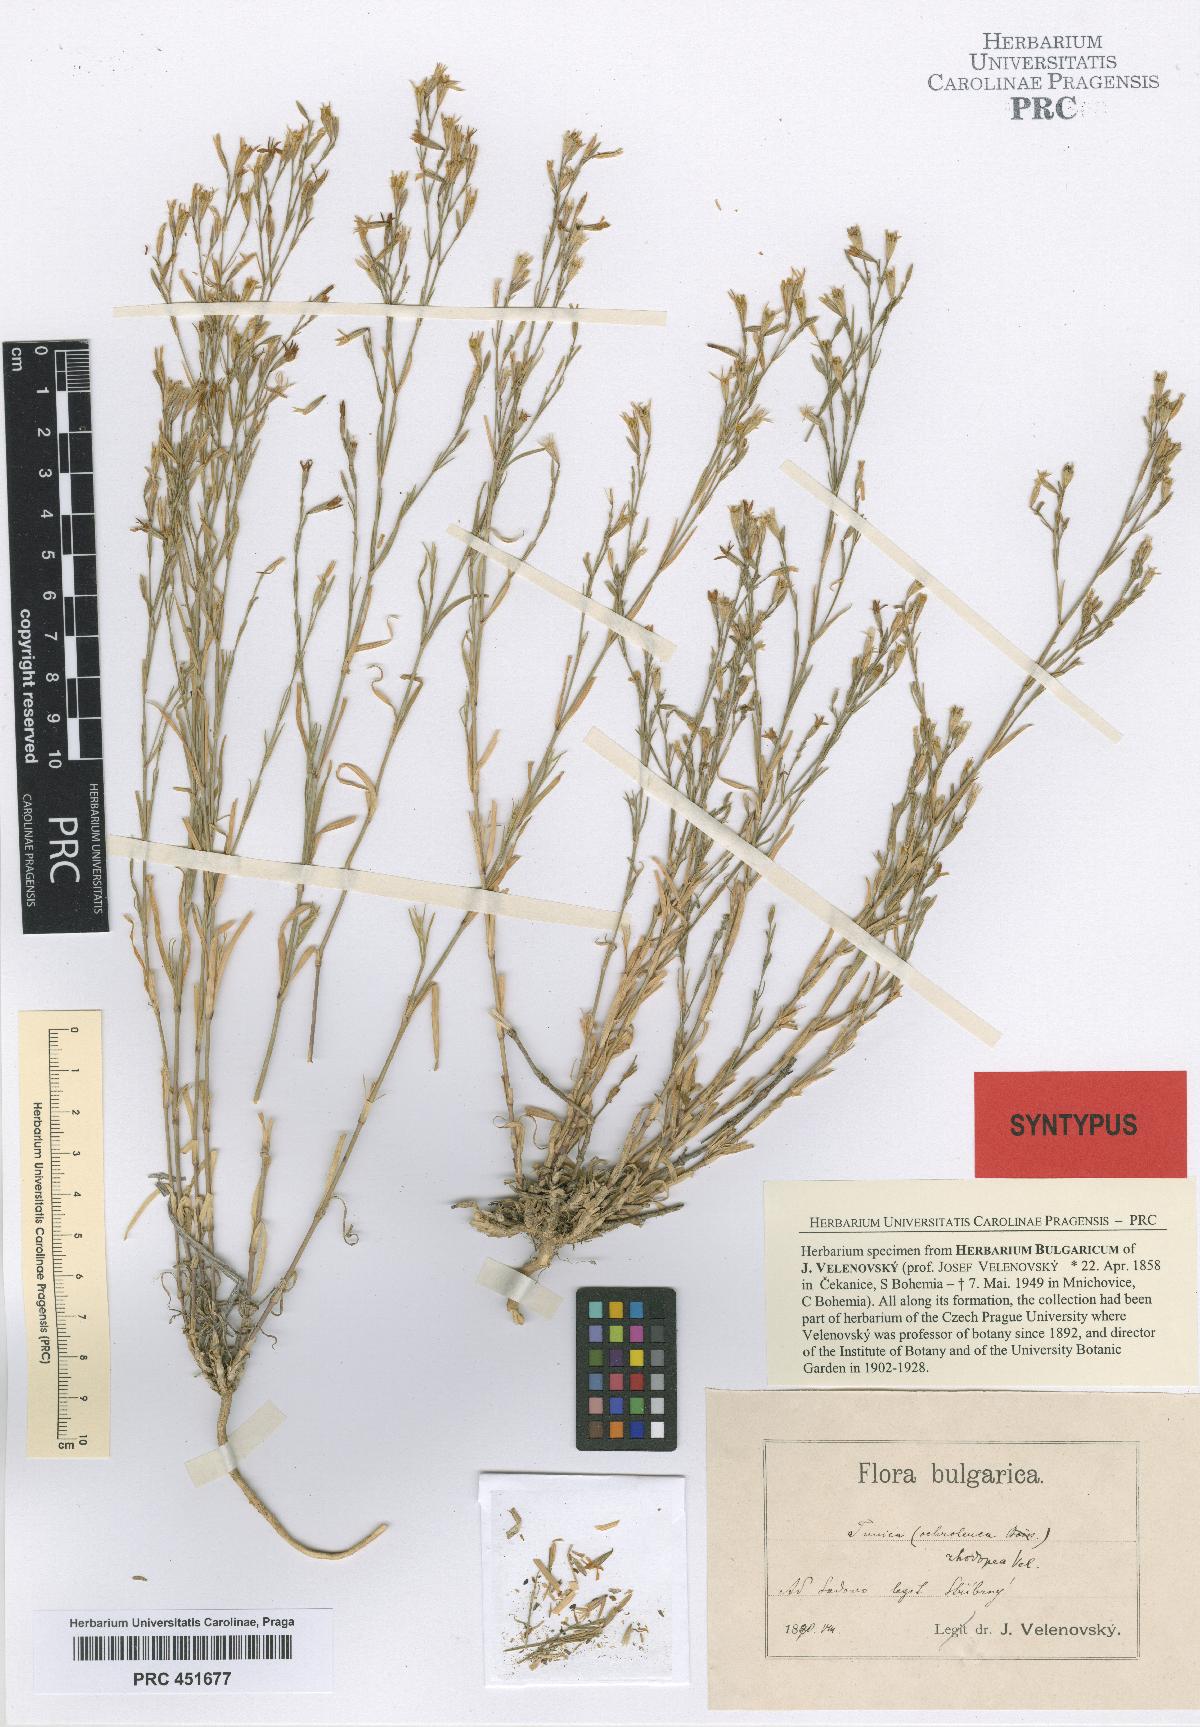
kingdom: Plantae
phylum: Tracheophyta
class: Magnoliopsida
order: Caryophyllales
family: Caryophyllaceae
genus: Petrorhagia
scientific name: Petrorhagia ochroleuca
